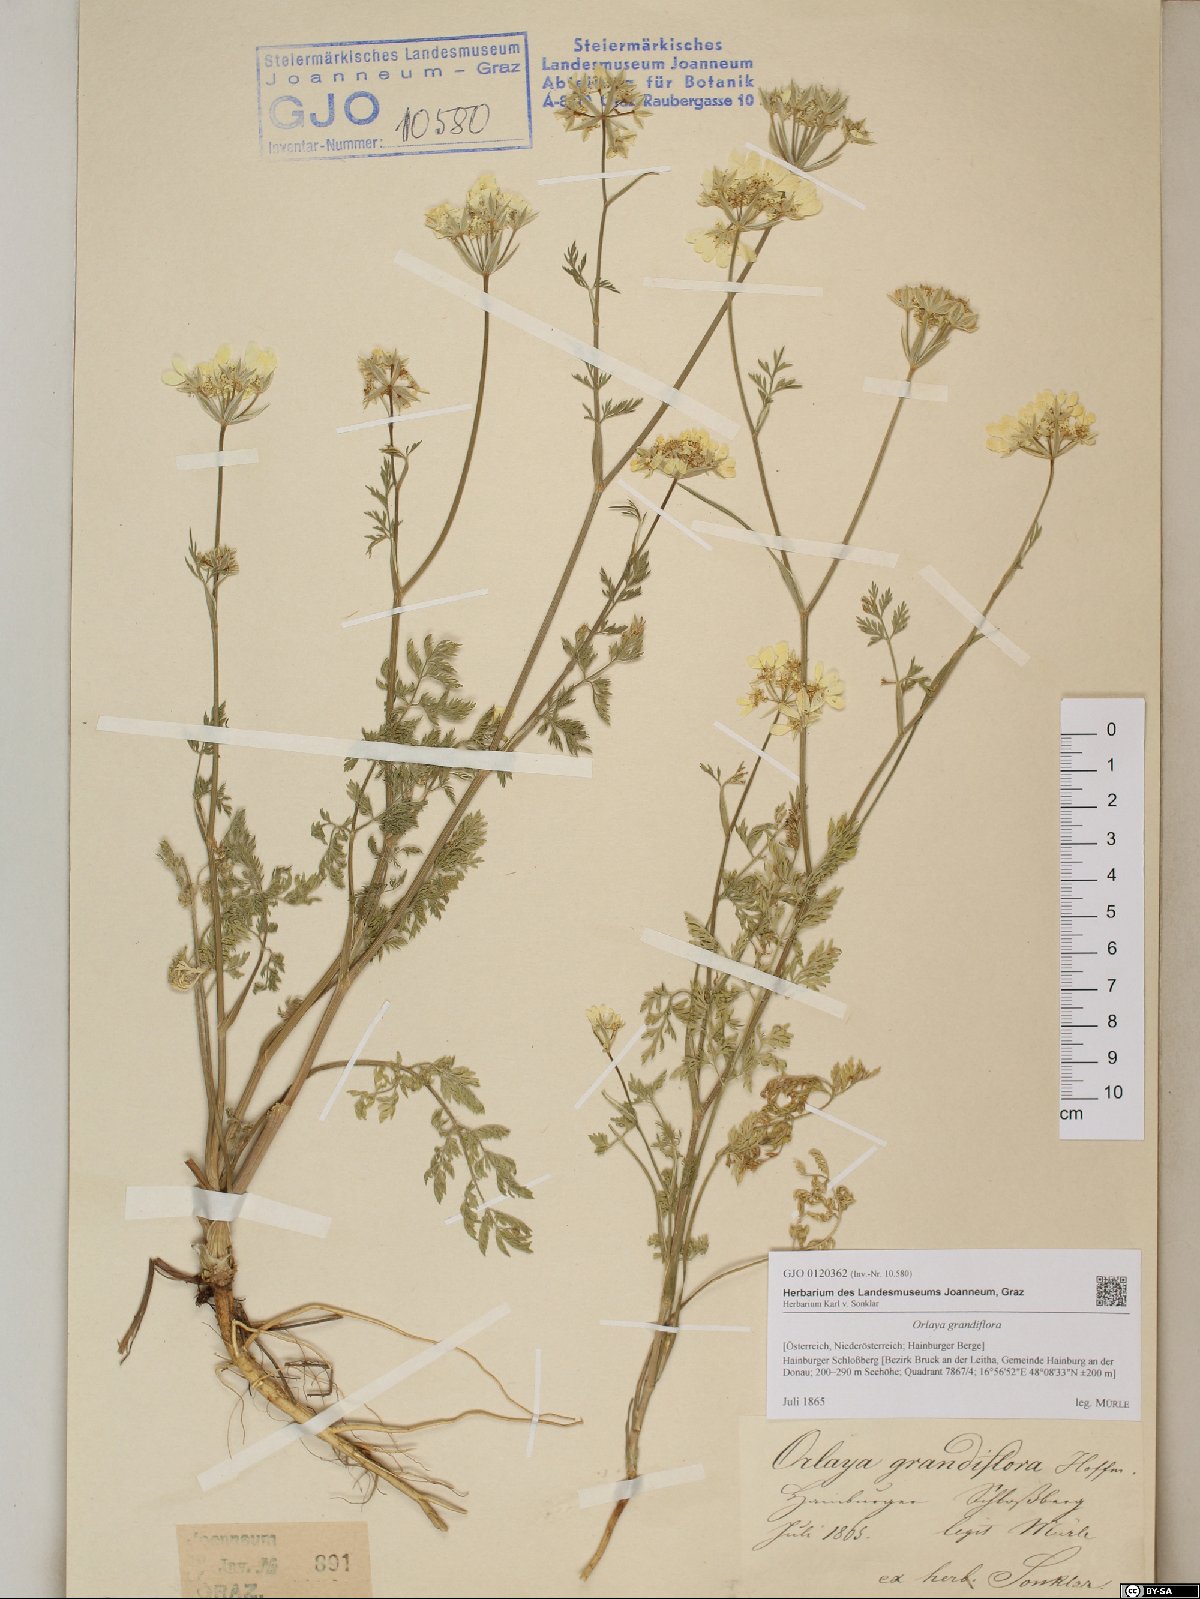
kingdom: Plantae
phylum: Tracheophyta
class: Magnoliopsida
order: Apiales
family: Apiaceae
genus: Orlaya
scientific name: Orlaya grandiflora
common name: White lace flower
